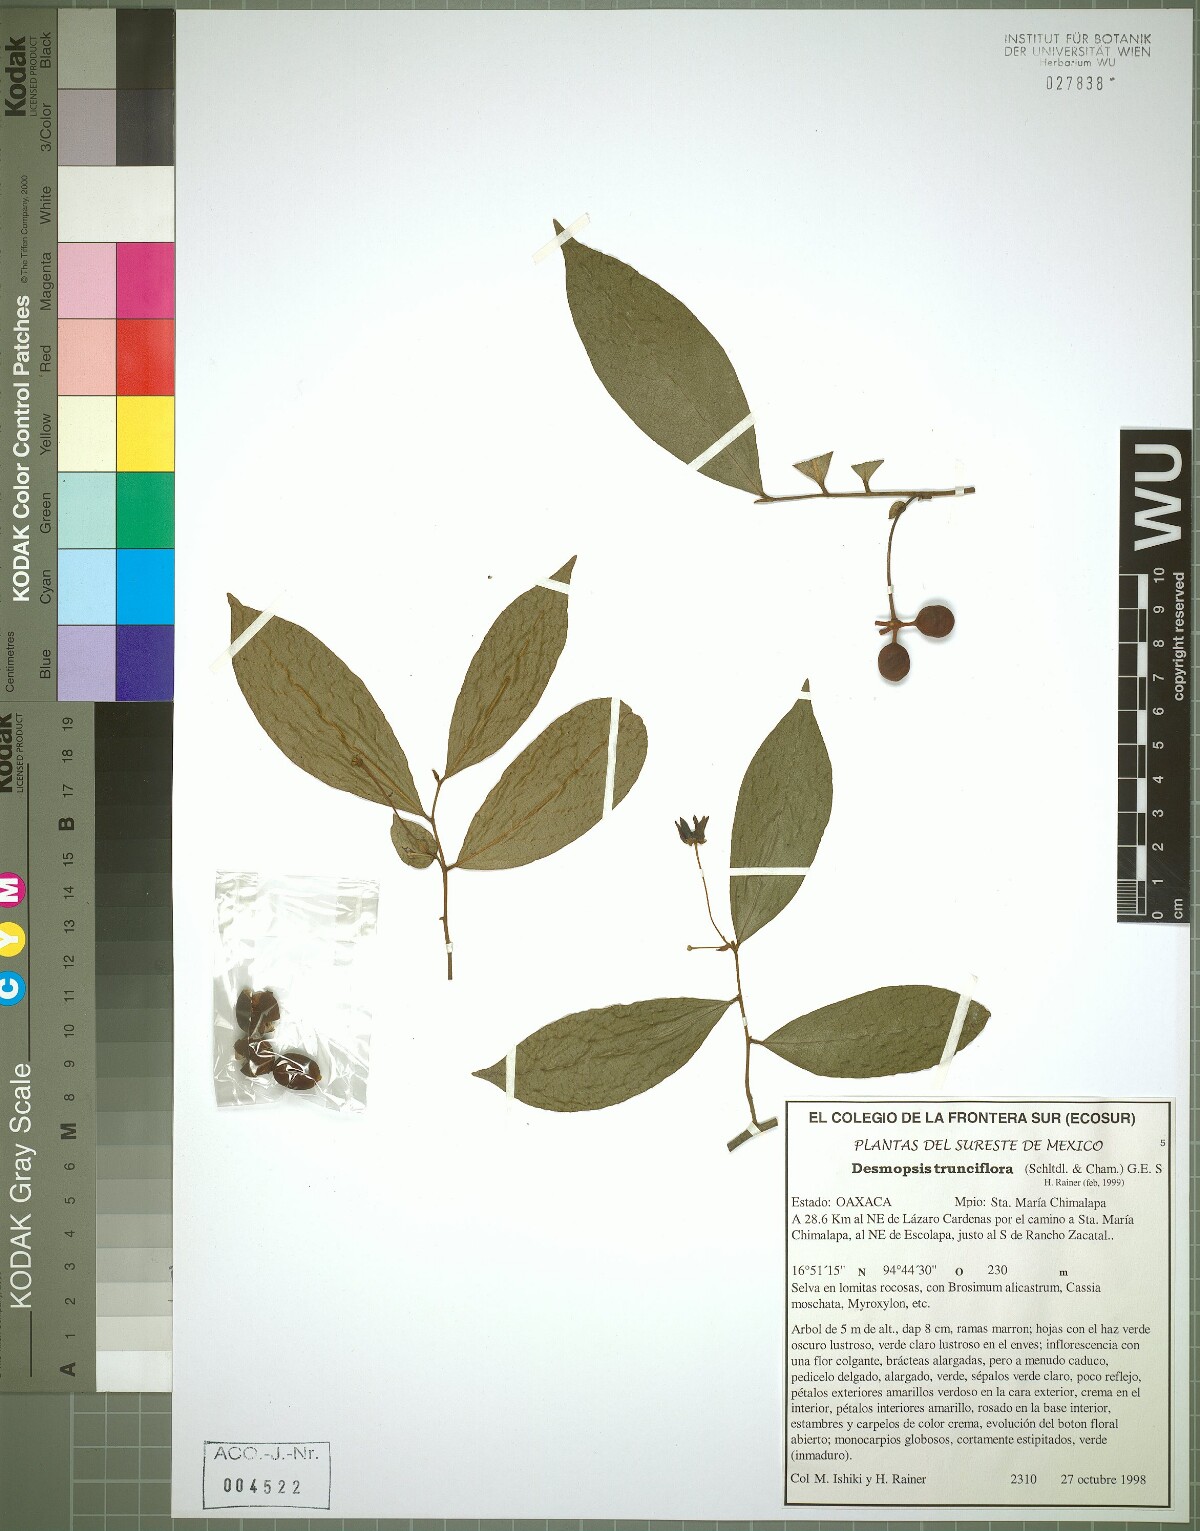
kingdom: Plantae
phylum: Tracheophyta
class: Magnoliopsida
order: Magnoliales
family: Annonaceae
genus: Desmopsis
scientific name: Desmopsis trunciflora
